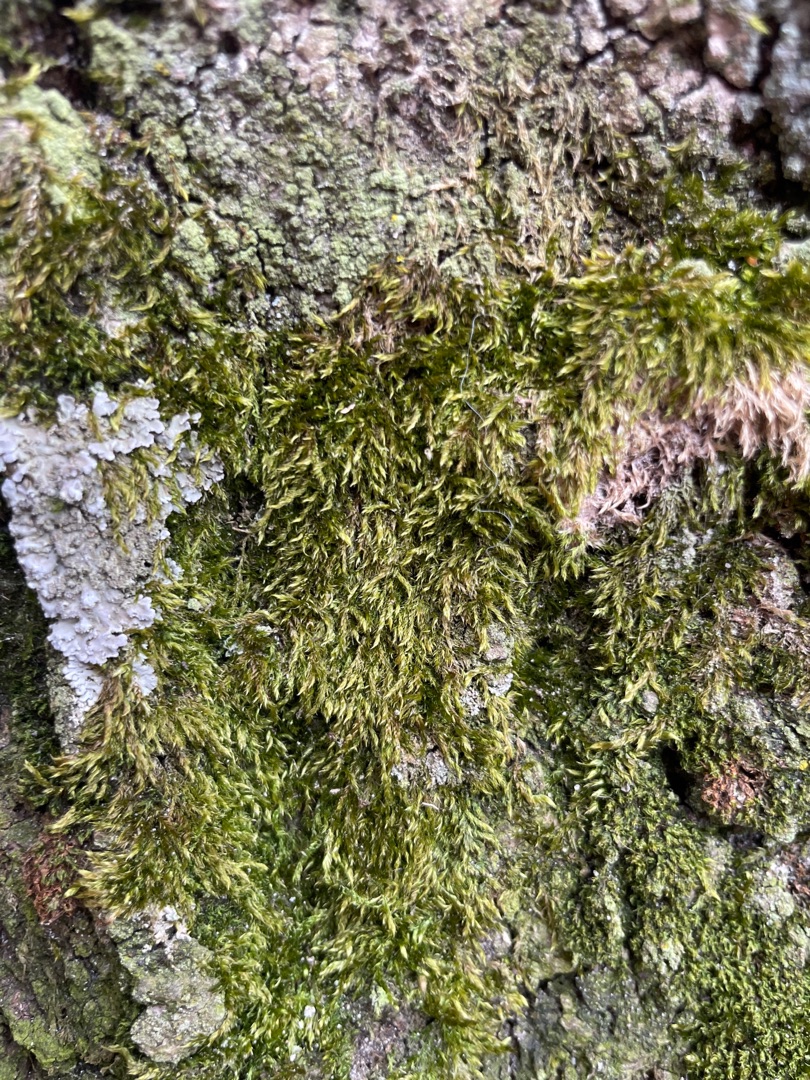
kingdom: Plantae
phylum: Bryophyta
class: Bryopsida
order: Hypnales
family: Hypnaceae
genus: Hypnum
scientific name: Hypnum
